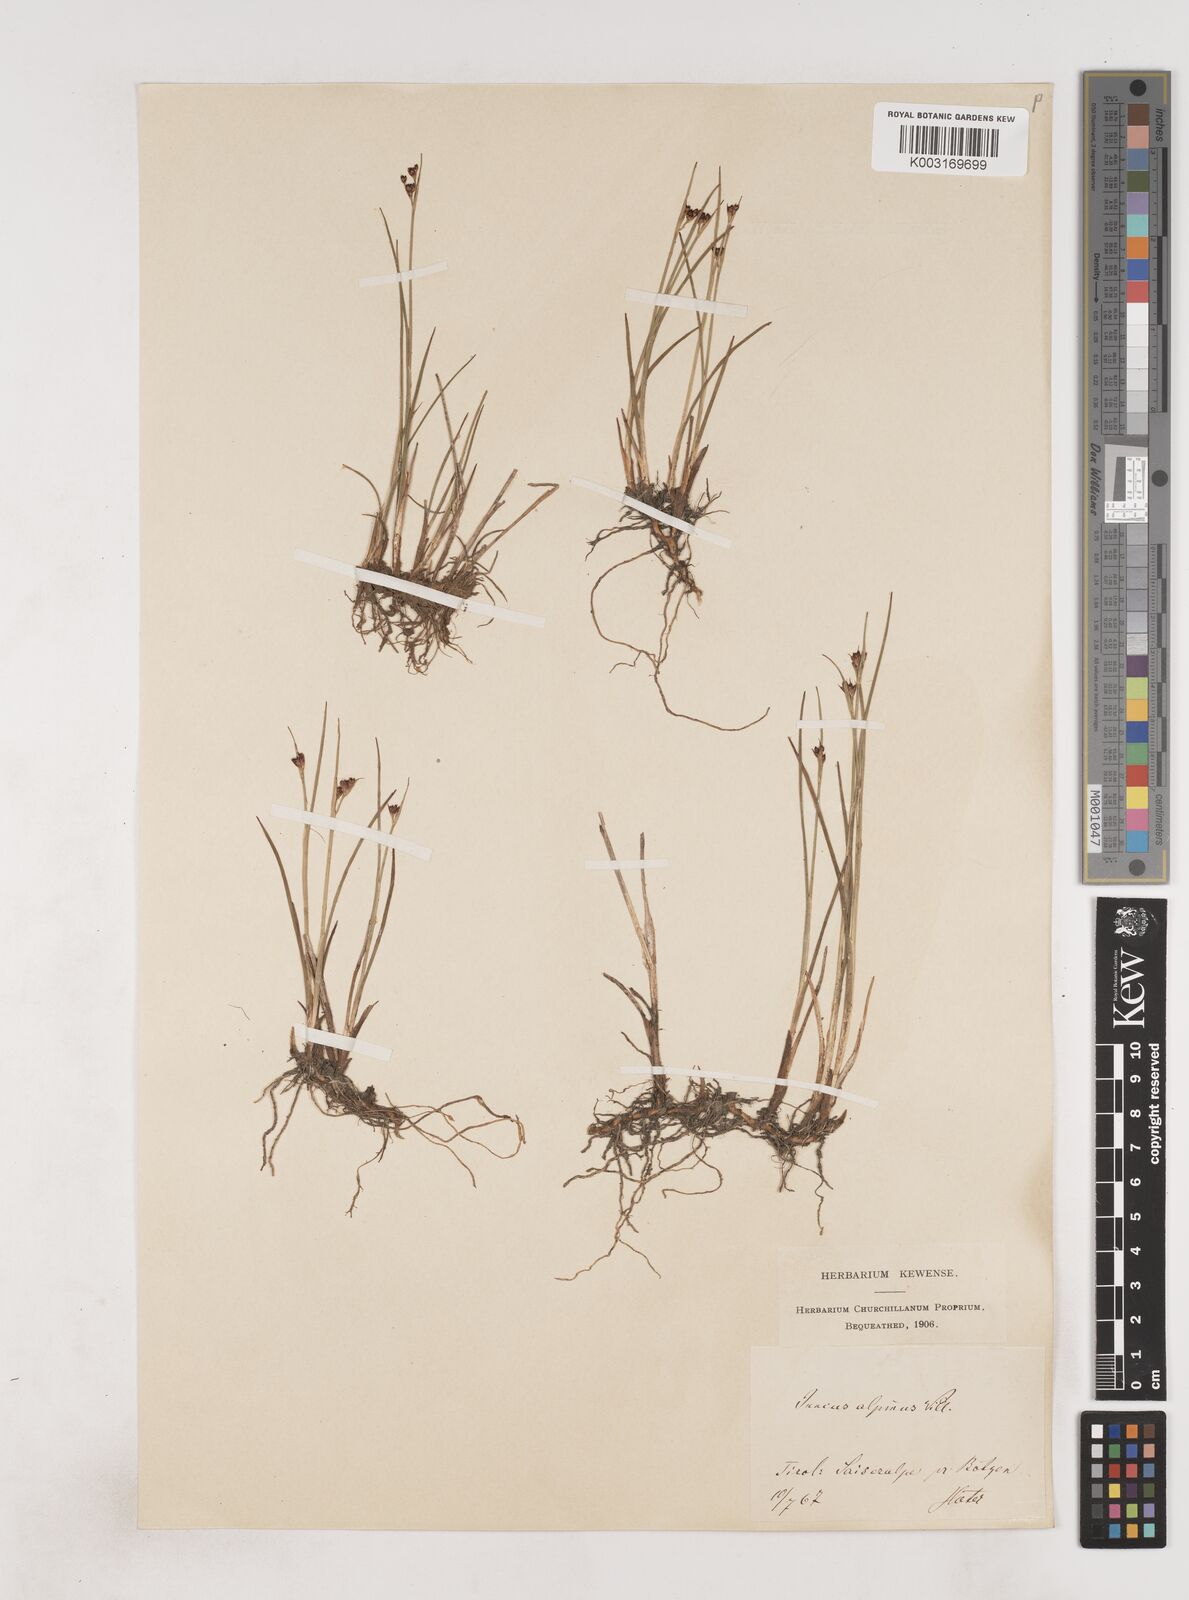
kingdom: Plantae
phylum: Tracheophyta
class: Liliopsida
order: Poales
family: Juncaceae
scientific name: Juncaceae
